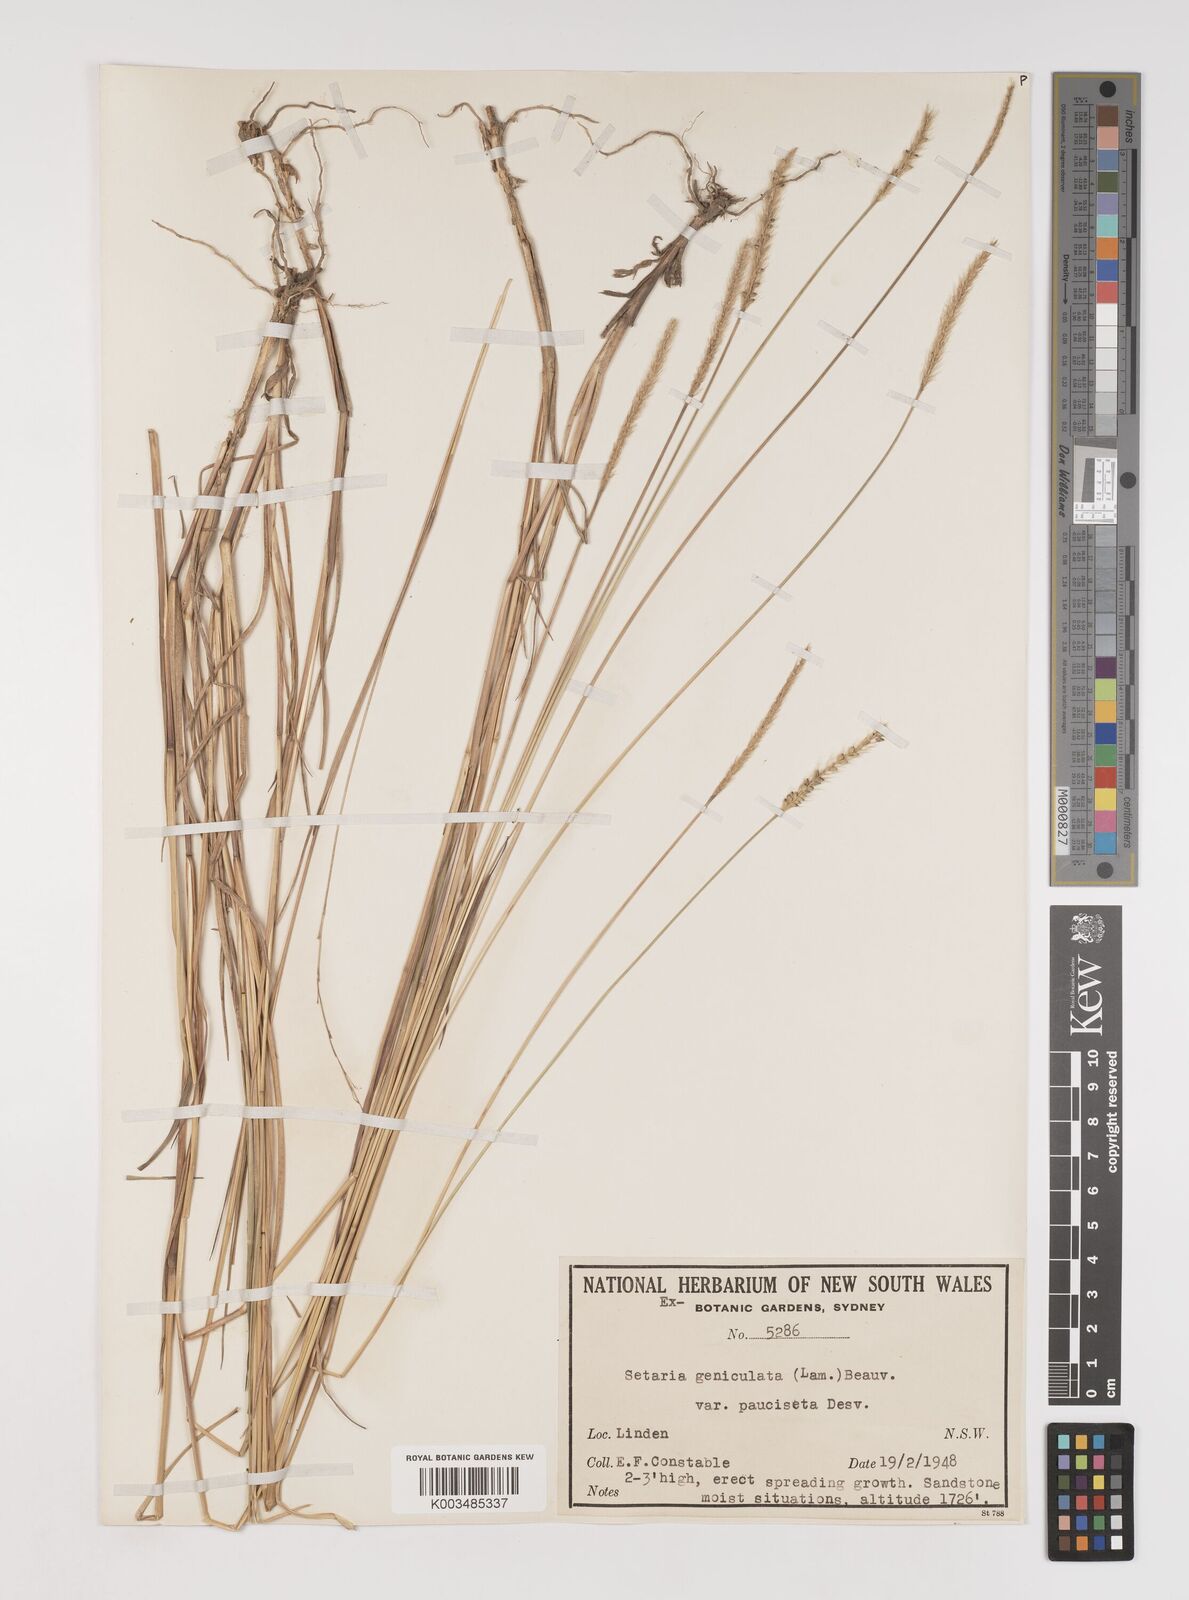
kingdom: Plantae
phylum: Tracheophyta
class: Liliopsida
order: Poales
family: Poaceae
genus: Setaria
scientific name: Setaria parviflora
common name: Knotroot bristle-grass
